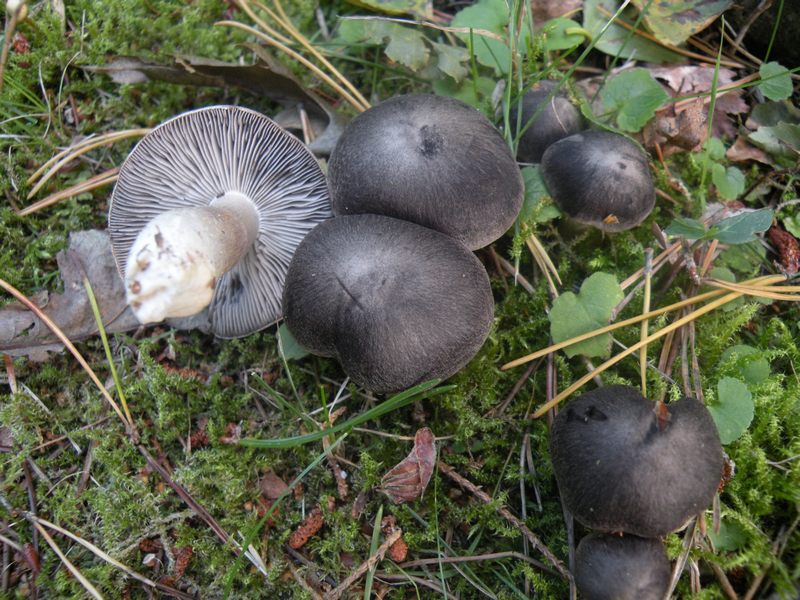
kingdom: Fungi
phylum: Basidiomycota
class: Agaricomycetes
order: Agaricales
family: Tricholomataceae
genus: Tricholoma
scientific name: Tricholoma terreum
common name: jordfarvet ridderhat
